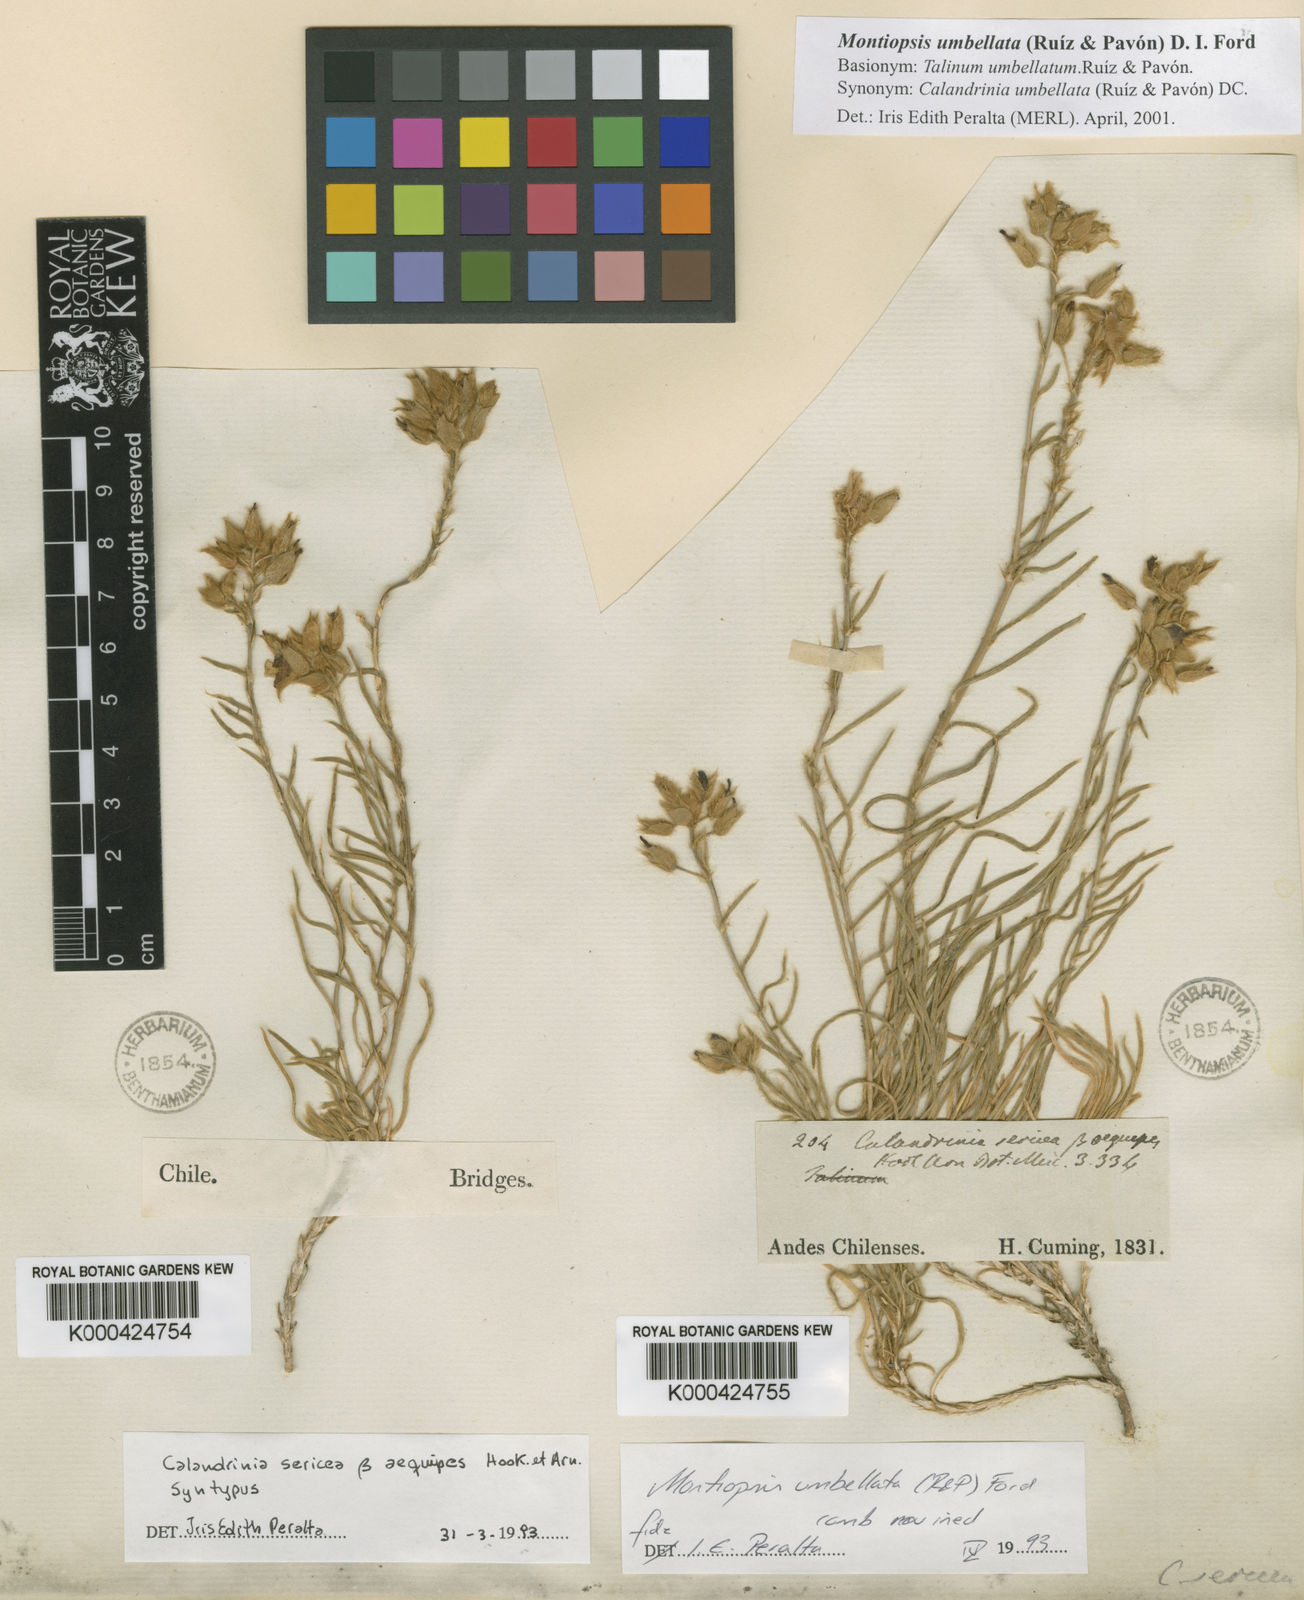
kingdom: Plantae
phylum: Tracheophyta
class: Magnoliopsida
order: Caryophyllales
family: Montiaceae
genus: Montiopsis
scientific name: Montiopsis
